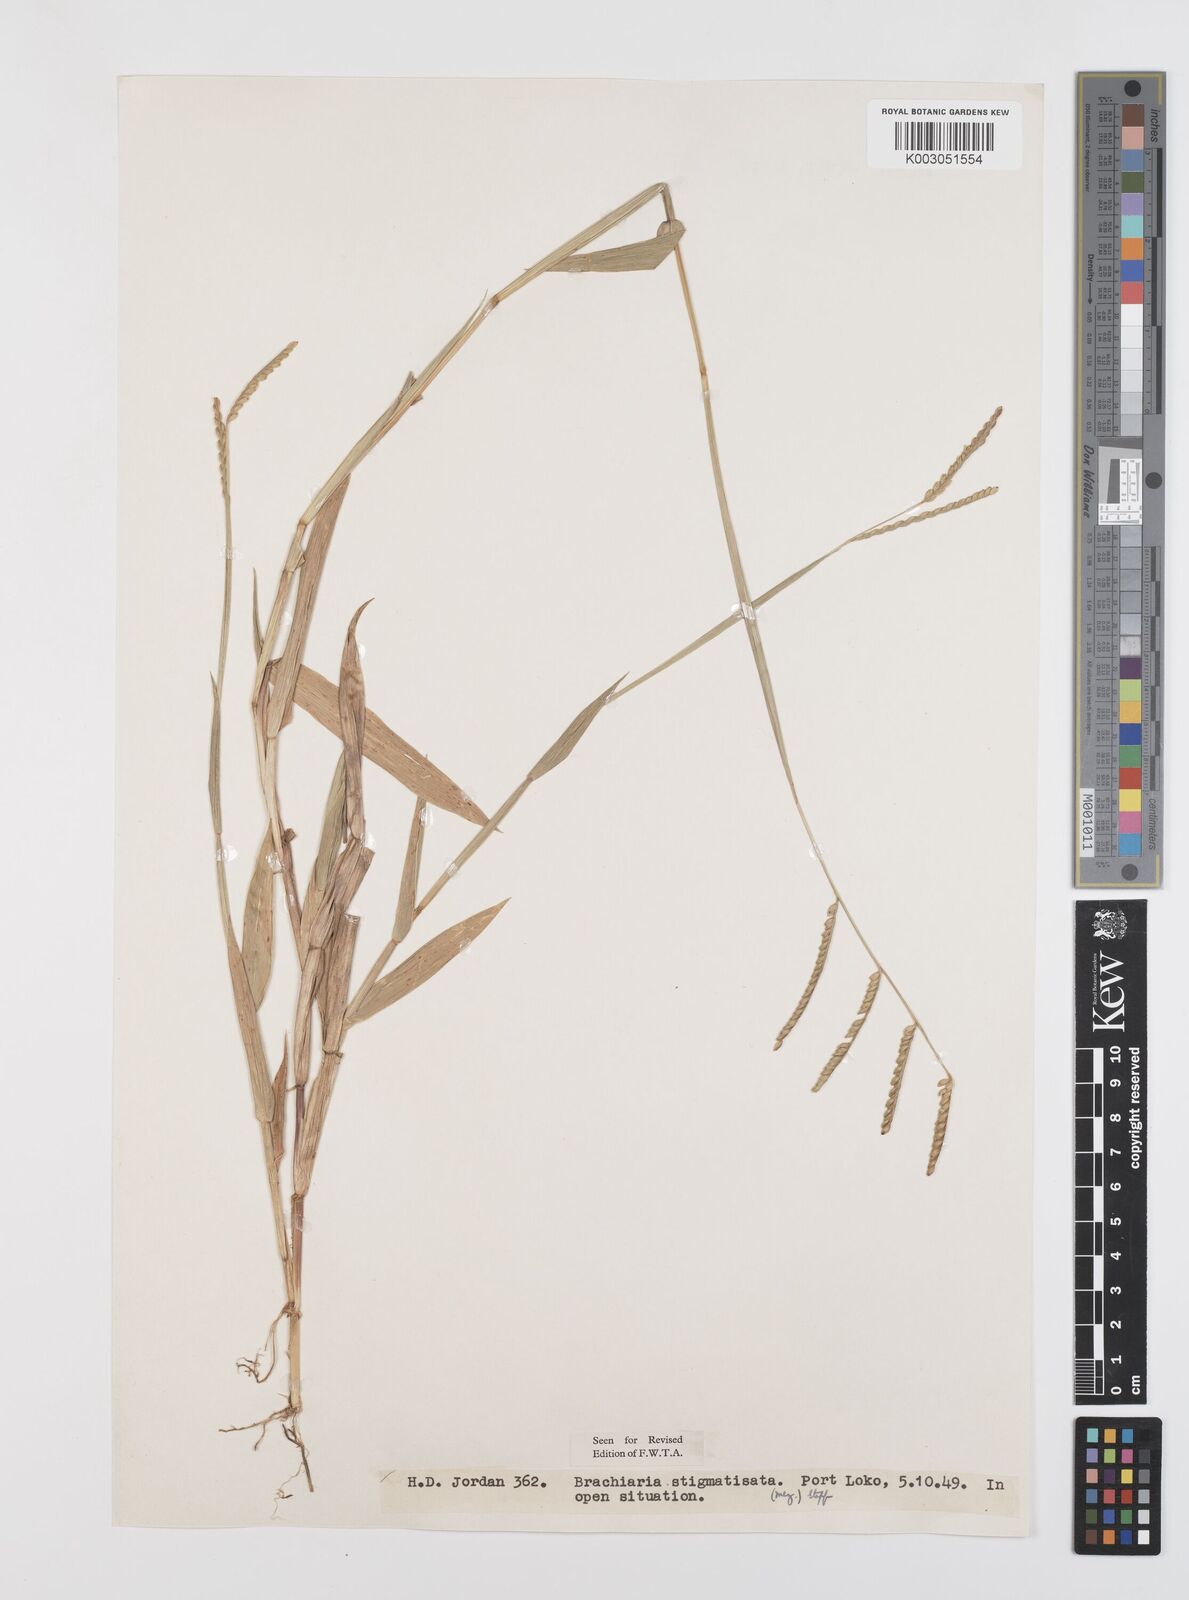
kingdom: Plantae
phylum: Tracheophyta
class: Liliopsida
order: Poales
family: Poaceae
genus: Urochloa
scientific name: Urochloa stigmatisata
